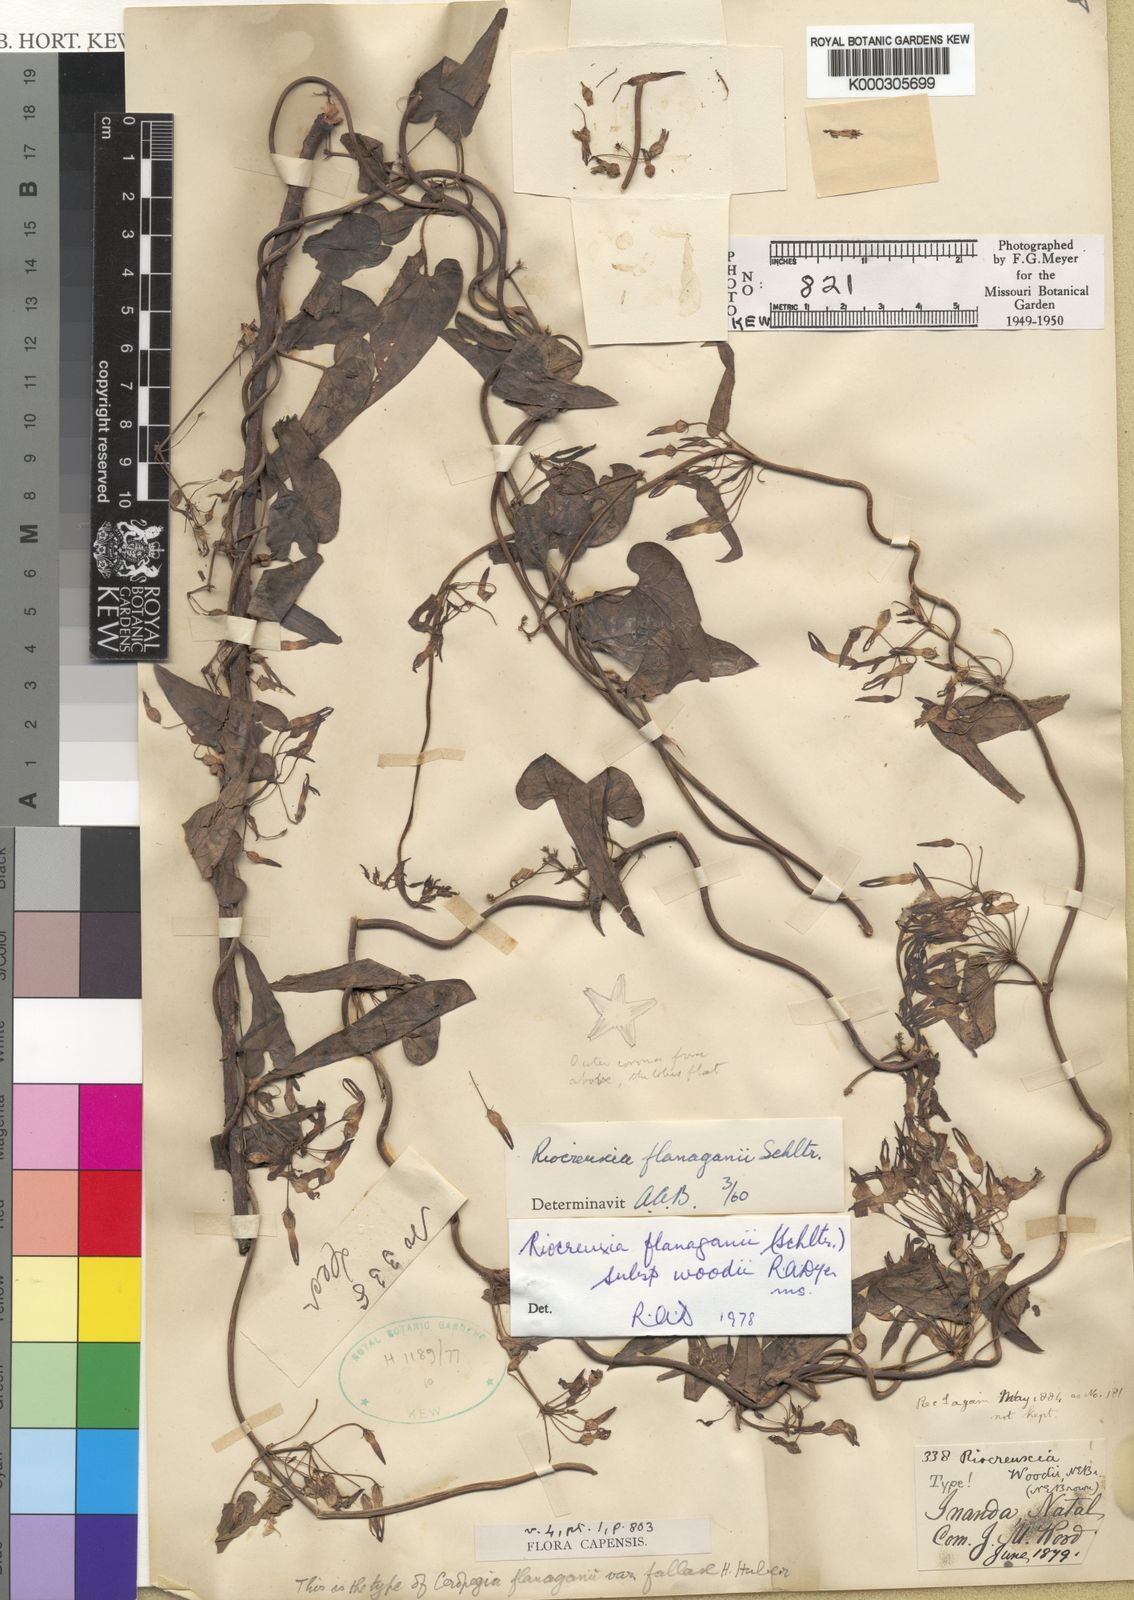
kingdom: Plantae
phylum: Tracheophyta
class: Magnoliopsida
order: Gentianales
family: Apocynaceae
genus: Riocreuxia
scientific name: Riocreuxia woodii
